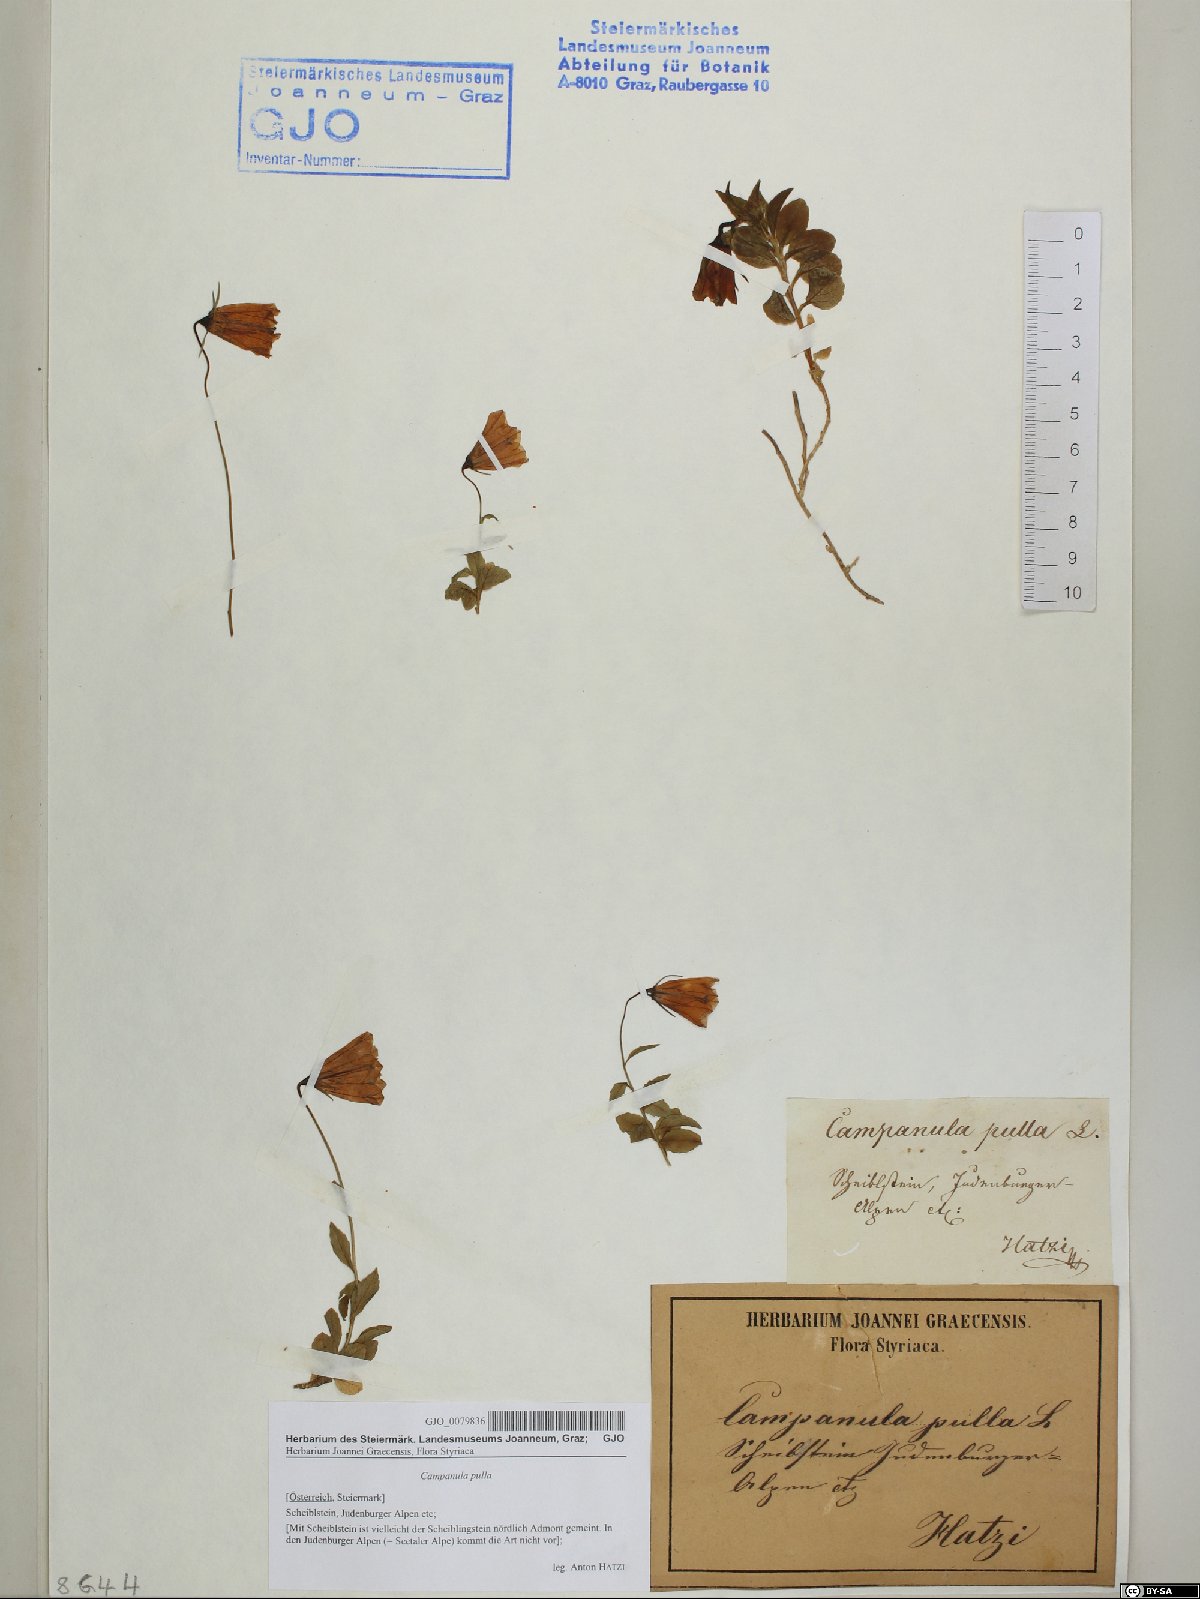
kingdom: Plantae
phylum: Tracheophyta
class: Magnoliopsida
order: Asterales
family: Campanulaceae
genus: Campanula
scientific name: Campanula pulla
